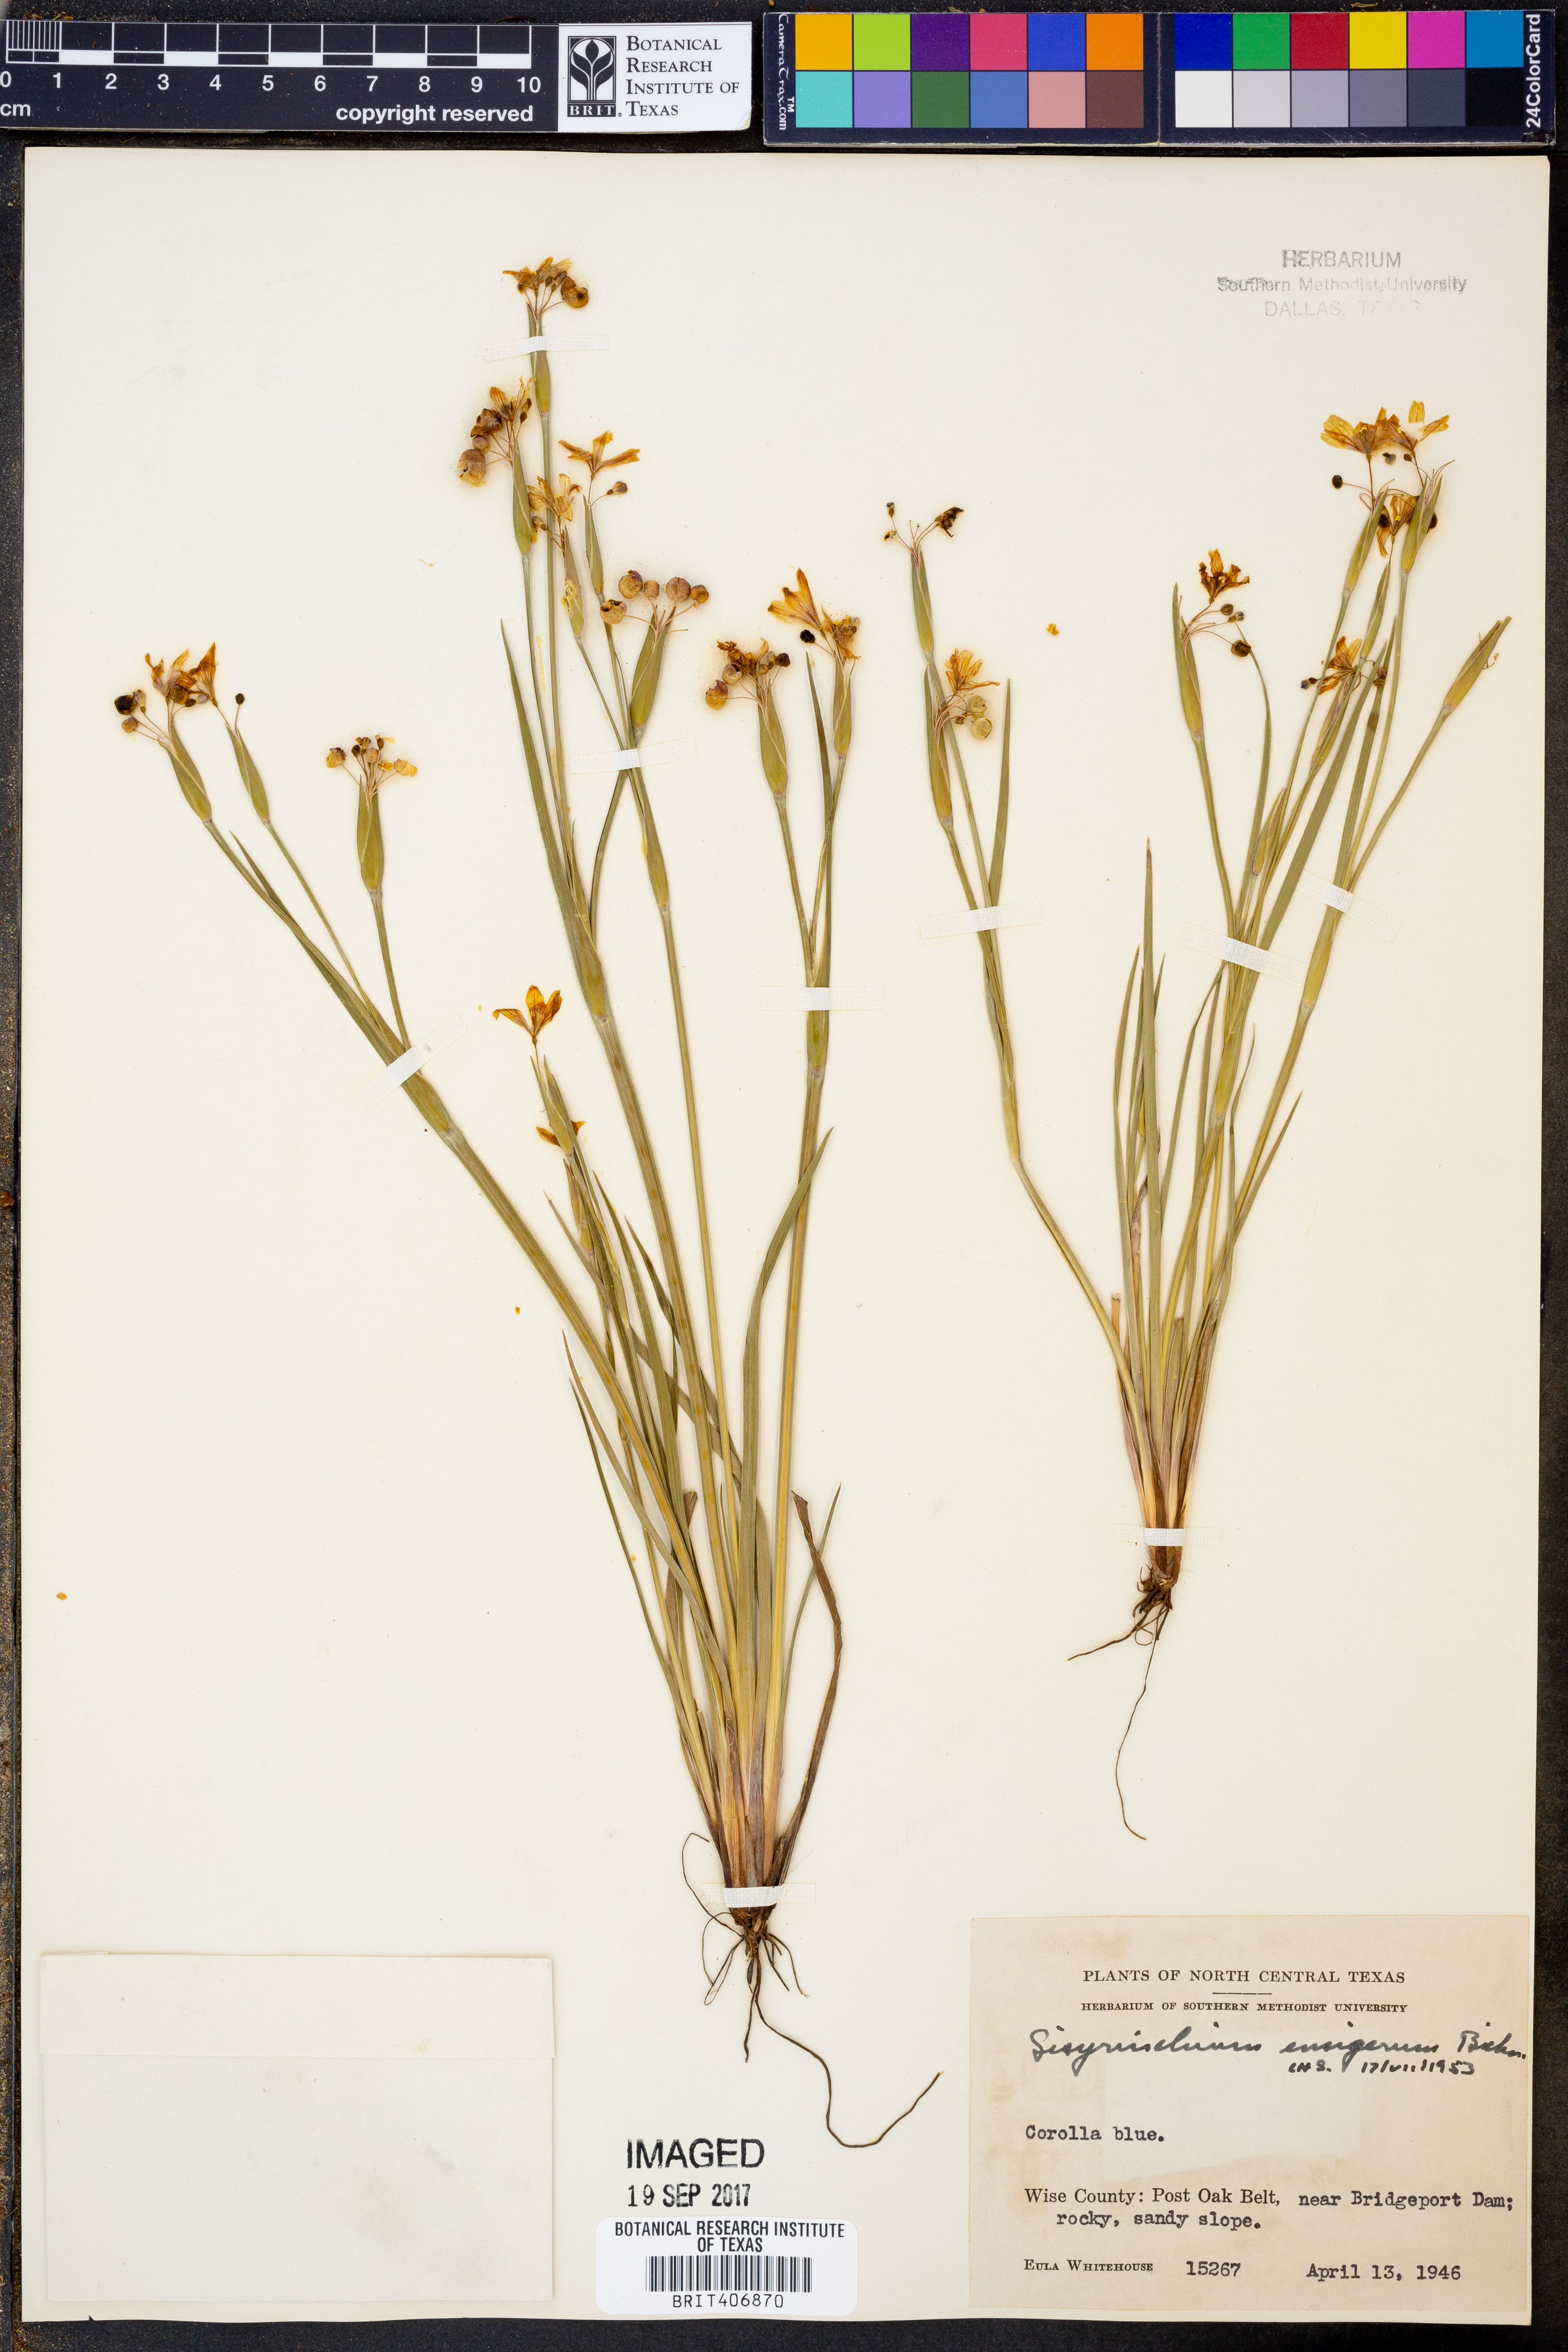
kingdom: Plantae
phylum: Tracheophyta
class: Liliopsida
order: Asparagales
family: Iridaceae
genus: Sisyrinchium
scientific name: Sisyrinchium ensigerum
